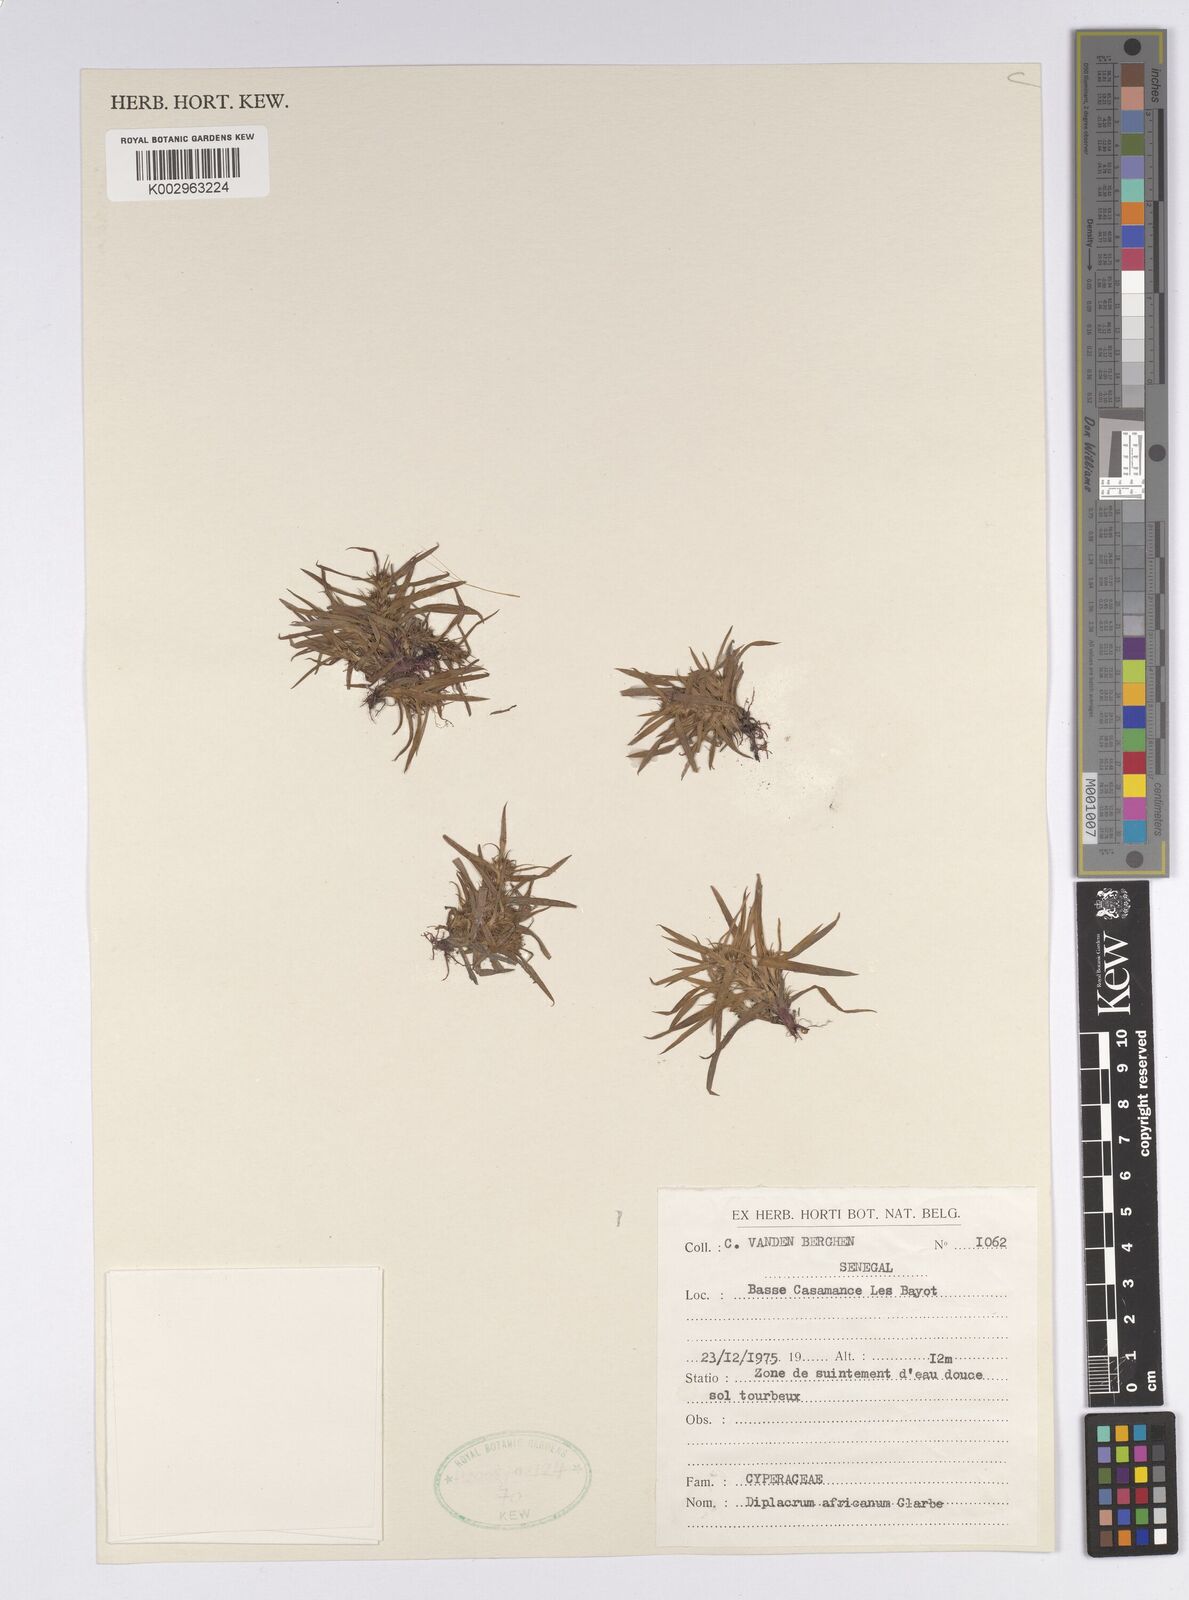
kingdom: Plantae
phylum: Tracheophyta
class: Liliopsida
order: Poales
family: Cyperaceae
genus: Diplacrum
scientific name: Diplacrum africanum
